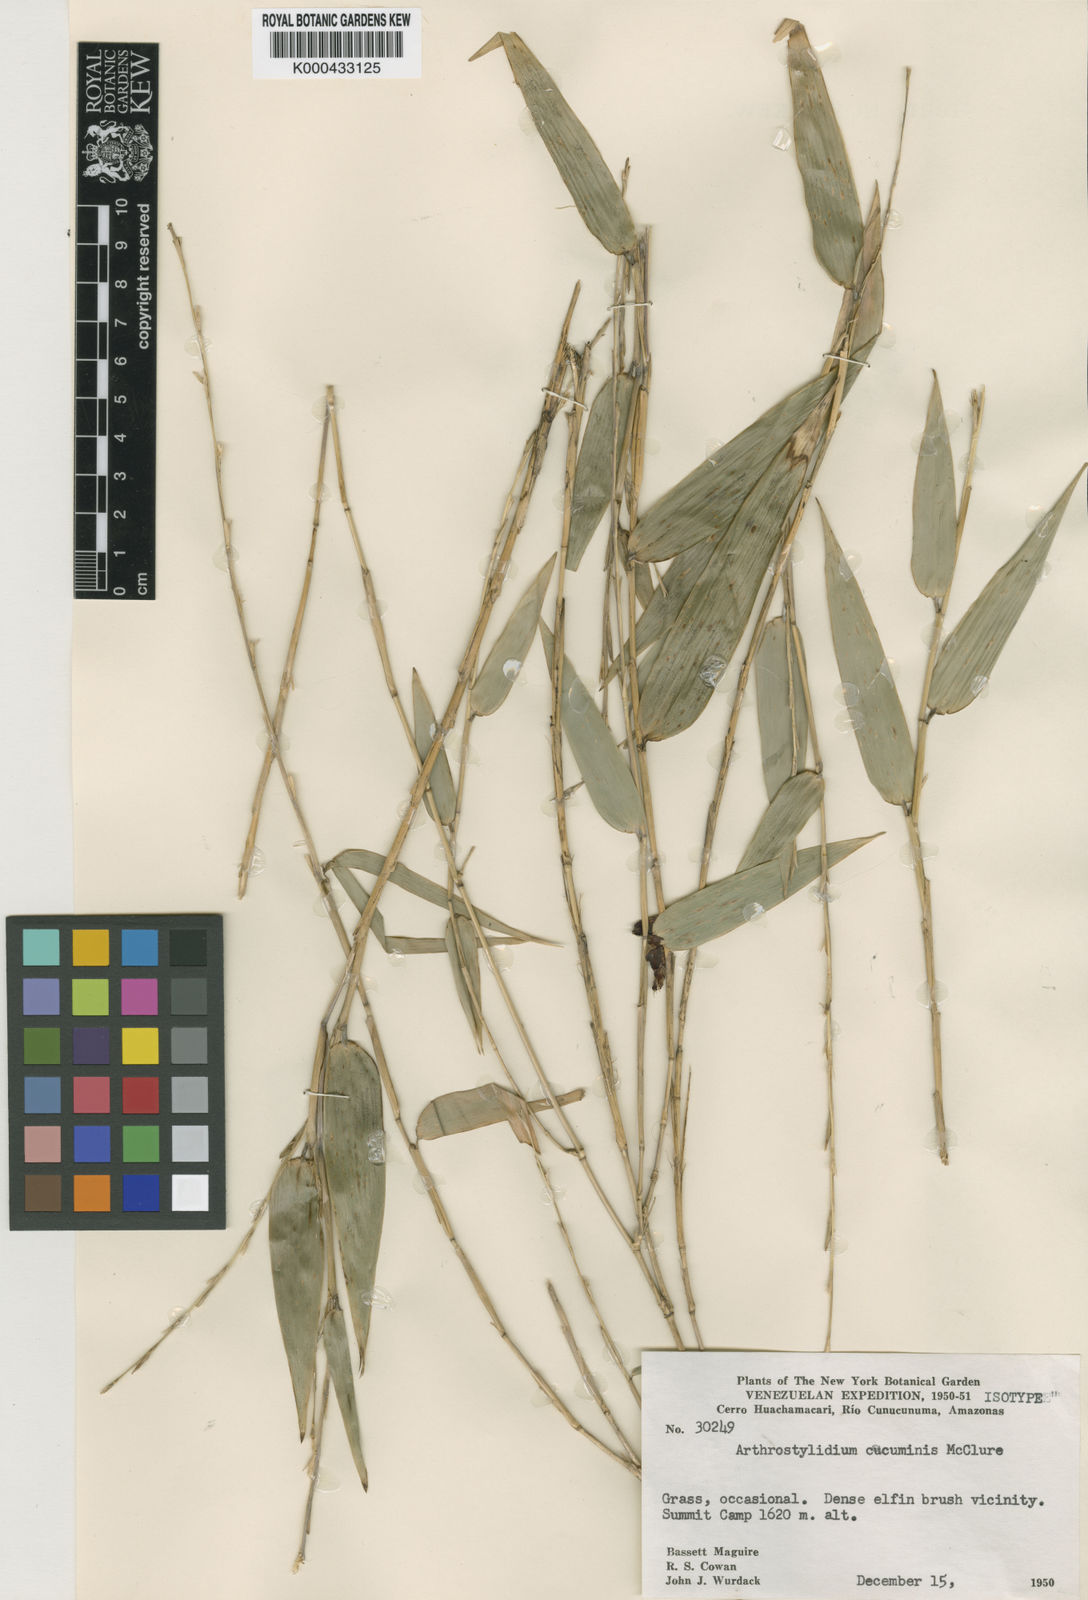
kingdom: Plantae
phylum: Tracheophyta
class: Liliopsida
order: Poales
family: Poaceae
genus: Arthrostylidium
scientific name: Arthrostylidium scandens
